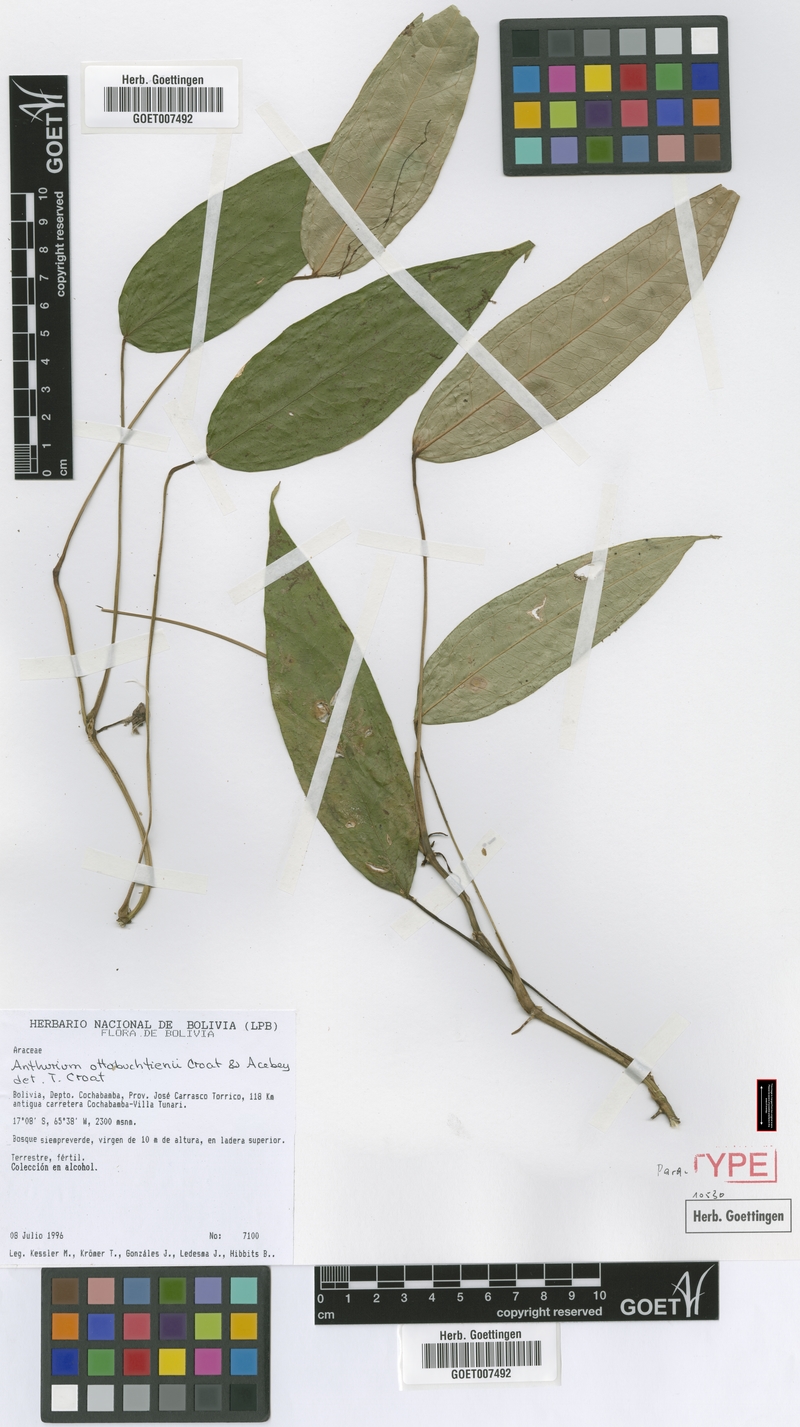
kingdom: Plantae
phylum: Tracheophyta
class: Liliopsida
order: Alismatales
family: Araceae
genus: Anthurium
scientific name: Anthurium ottobuchtienii
